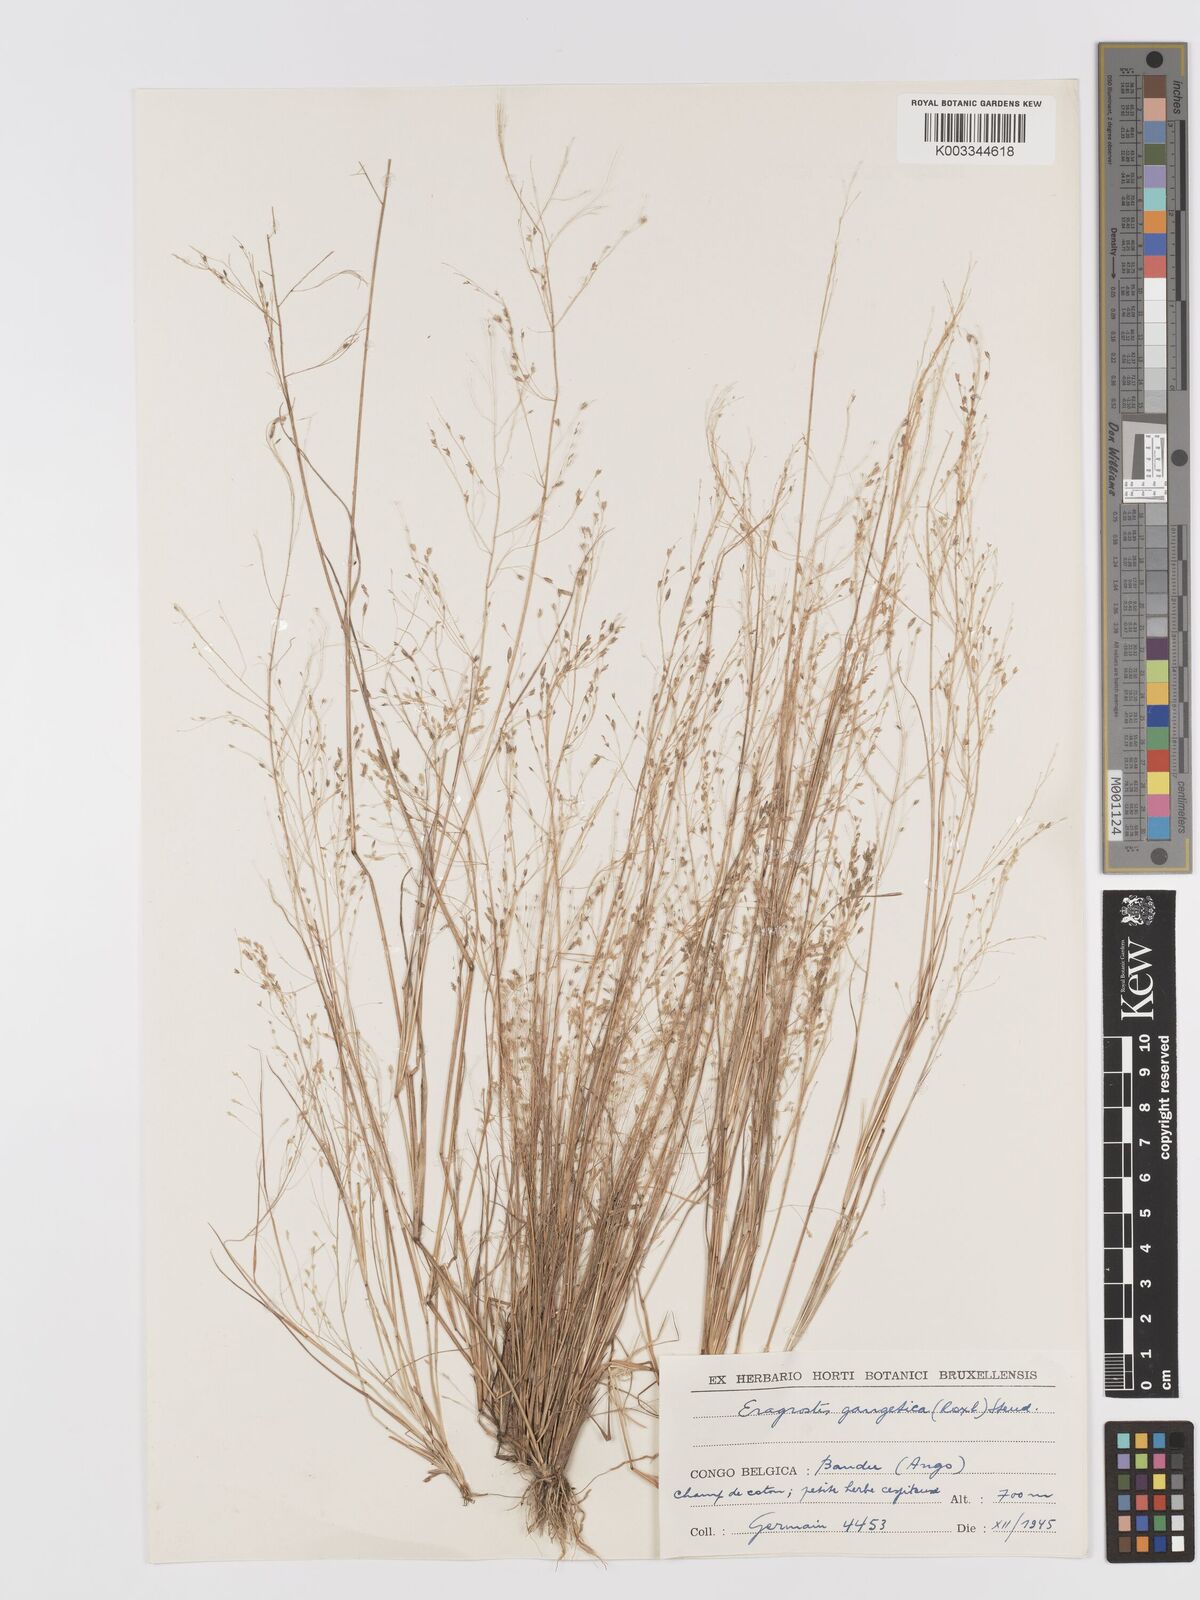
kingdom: Plantae
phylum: Tracheophyta
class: Liliopsida
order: Poales
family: Poaceae
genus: Eragrostis
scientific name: Eragrostis gangetica
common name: Slimflower lovegrass
